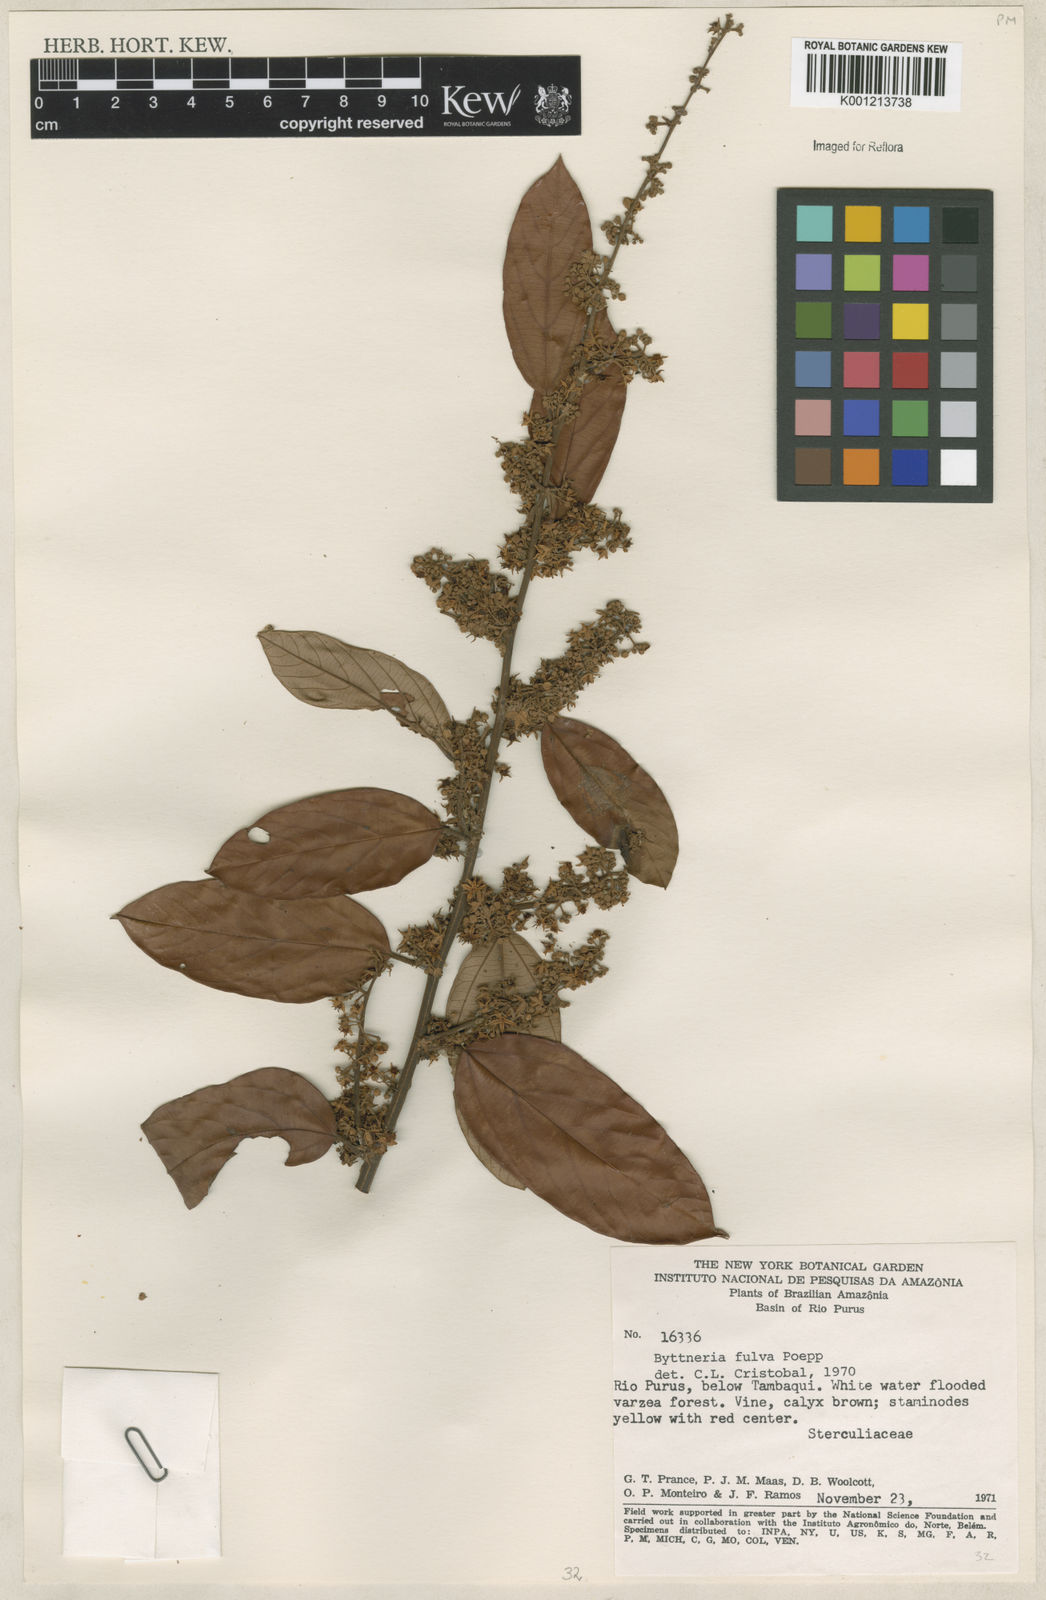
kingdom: Plantae
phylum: Tracheophyta
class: Magnoliopsida
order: Malvales
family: Malvaceae
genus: Byttneria
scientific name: Byttneria fulva
